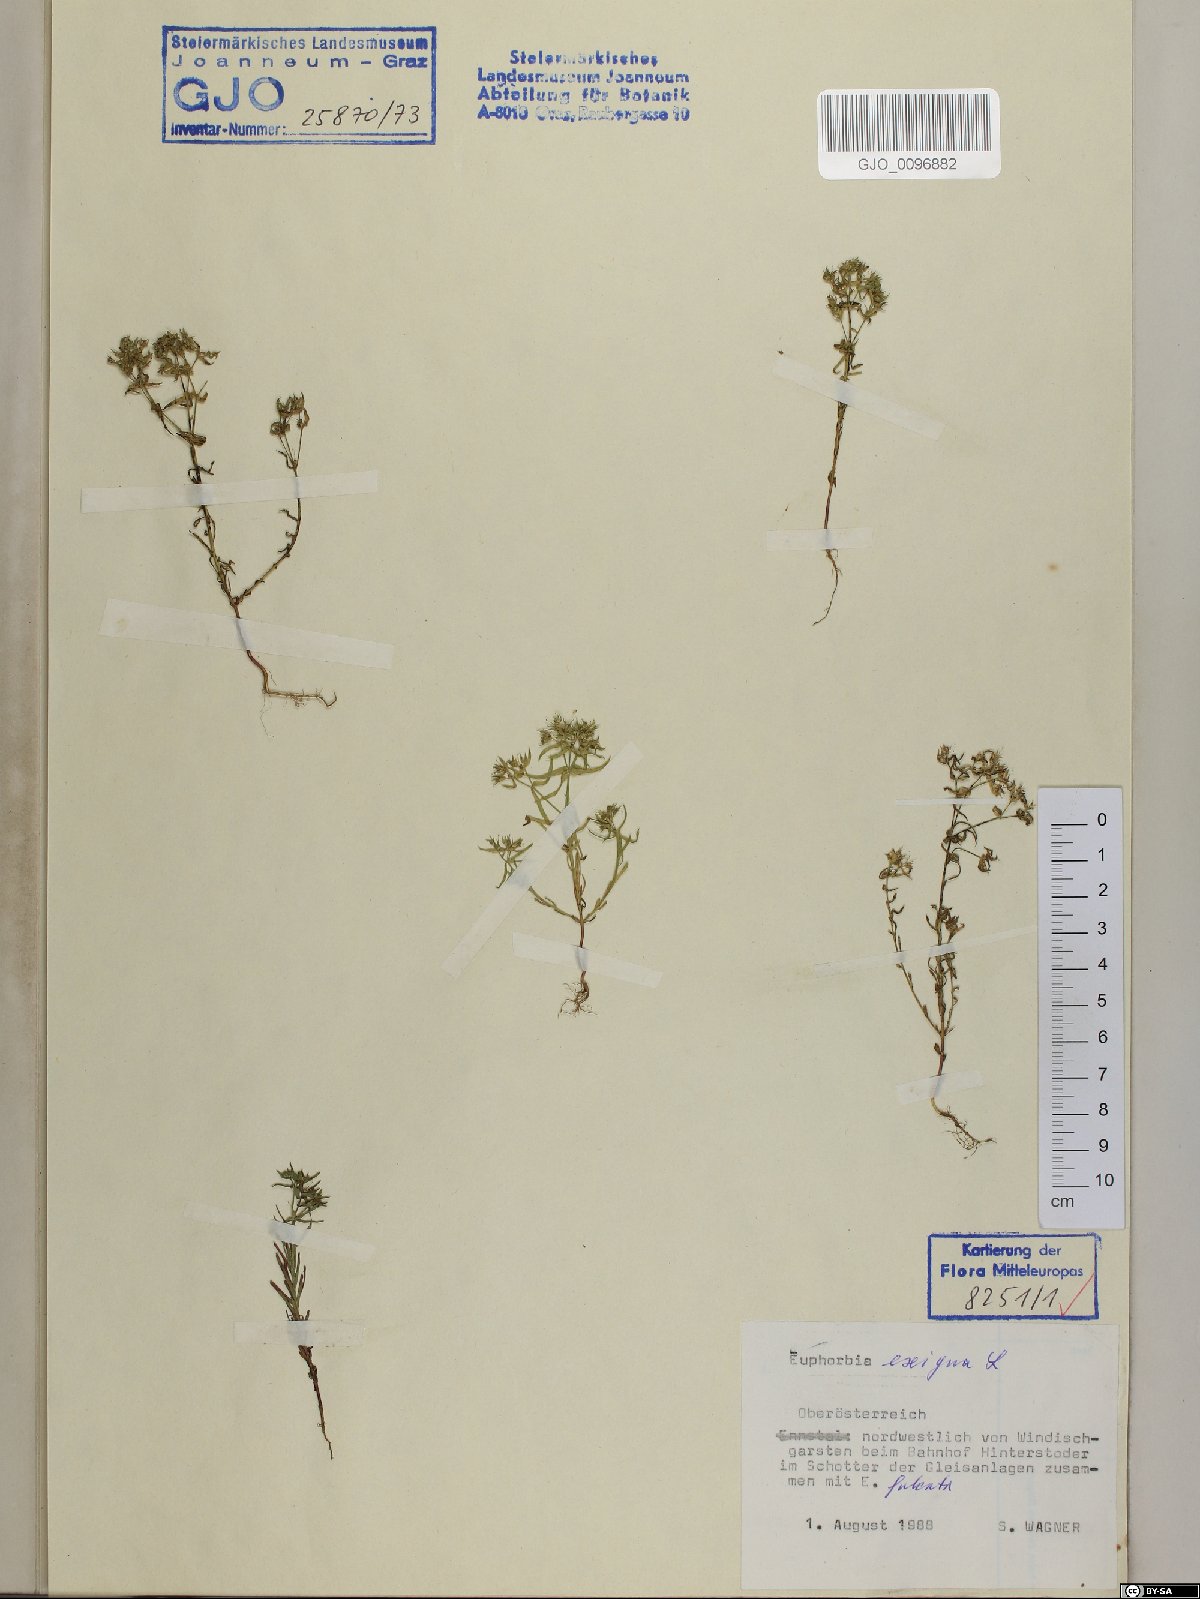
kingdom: Plantae
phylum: Tracheophyta
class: Magnoliopsida
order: Malpighiales
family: Euphorbiaceae
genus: Euphorbia
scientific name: Euphorbia exigua
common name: Dwarf spurge
